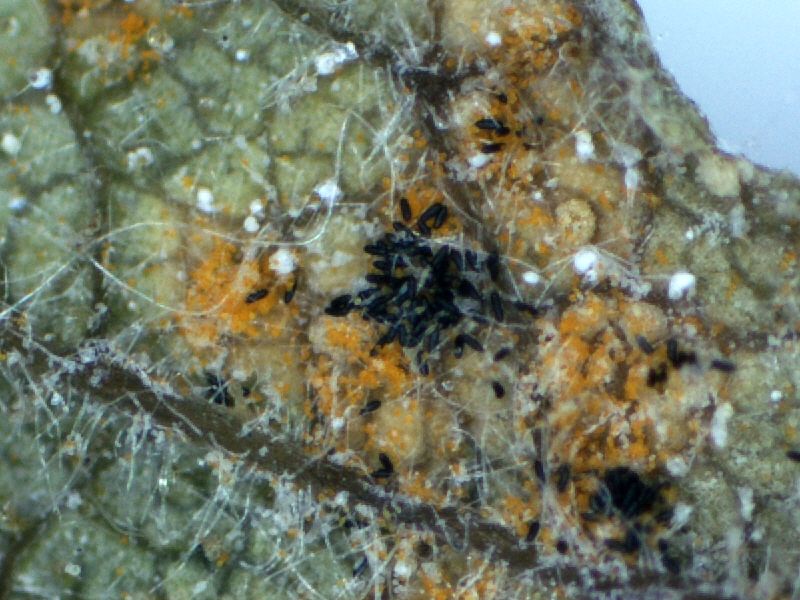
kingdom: Fungi
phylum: Basidiomycota
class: Pucciniomycetes
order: Pucciniales
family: Phragmidiaceae
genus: Phragmidium
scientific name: Phragmidium tuberculatum
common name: Rose rust
